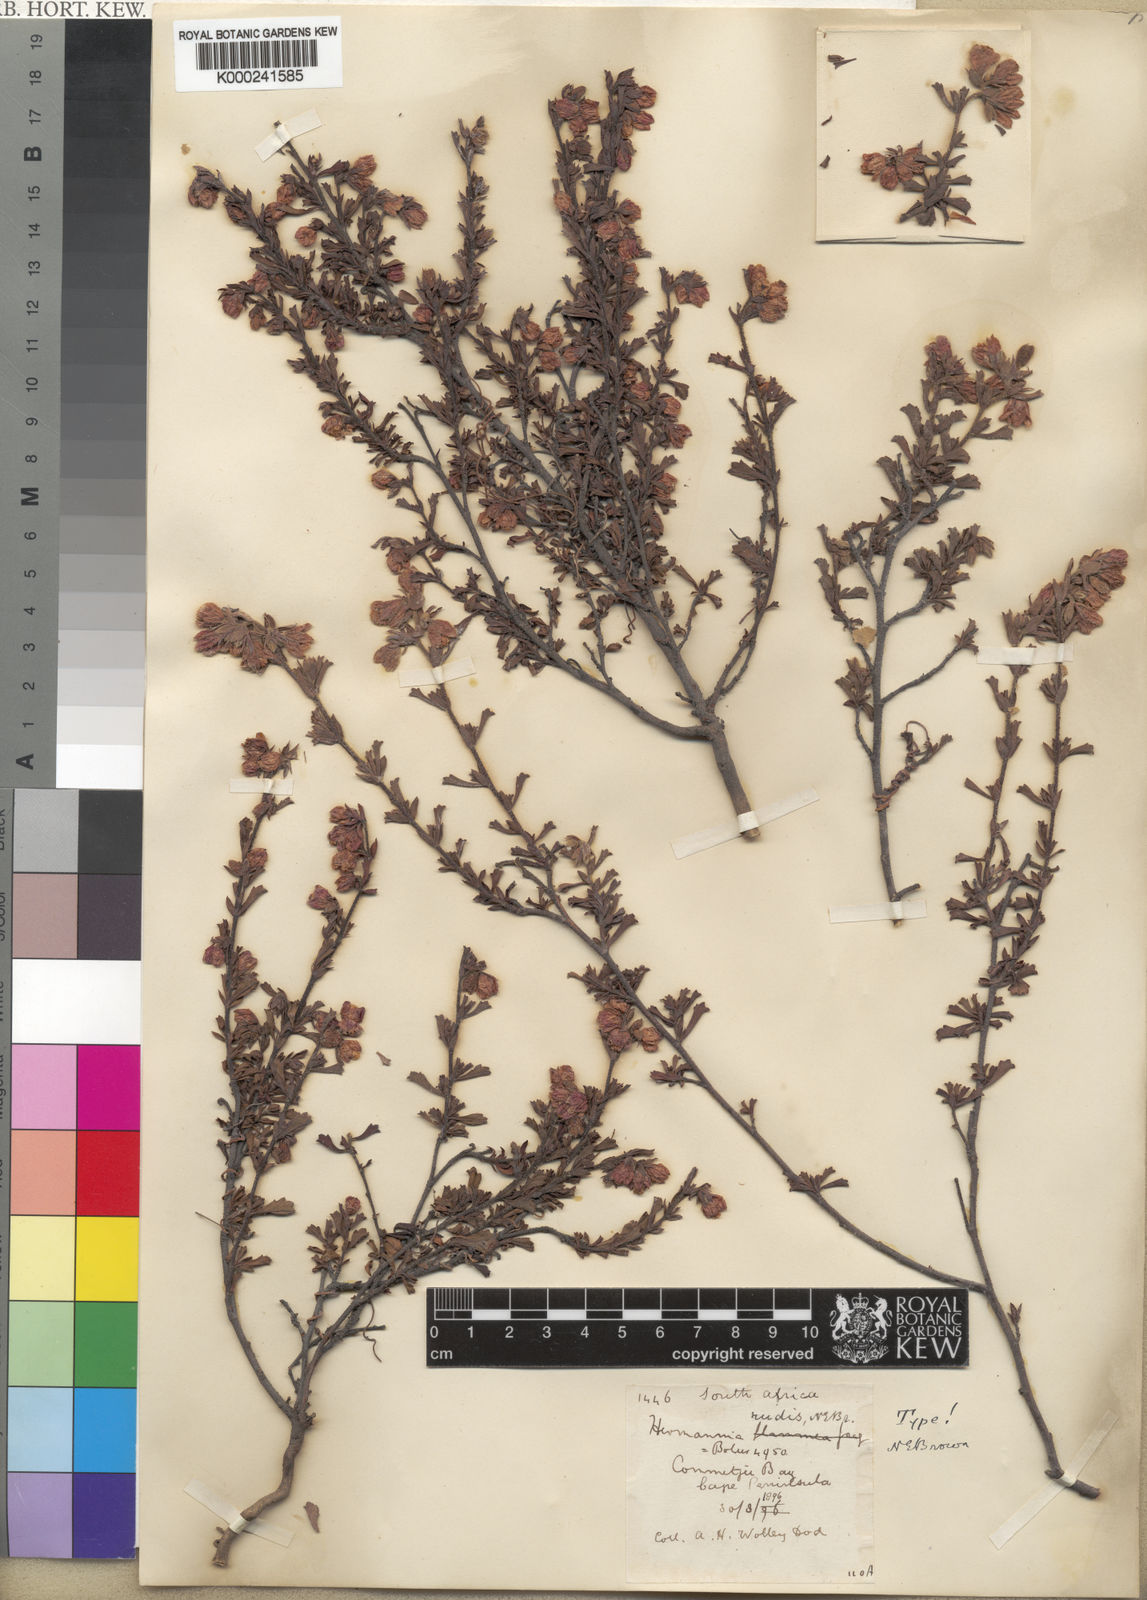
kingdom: Plantae
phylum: Tracheophyta
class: Magnoliopsida
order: Malvales
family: Malvaceae
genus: Hermannia
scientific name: Hermannia rudis
